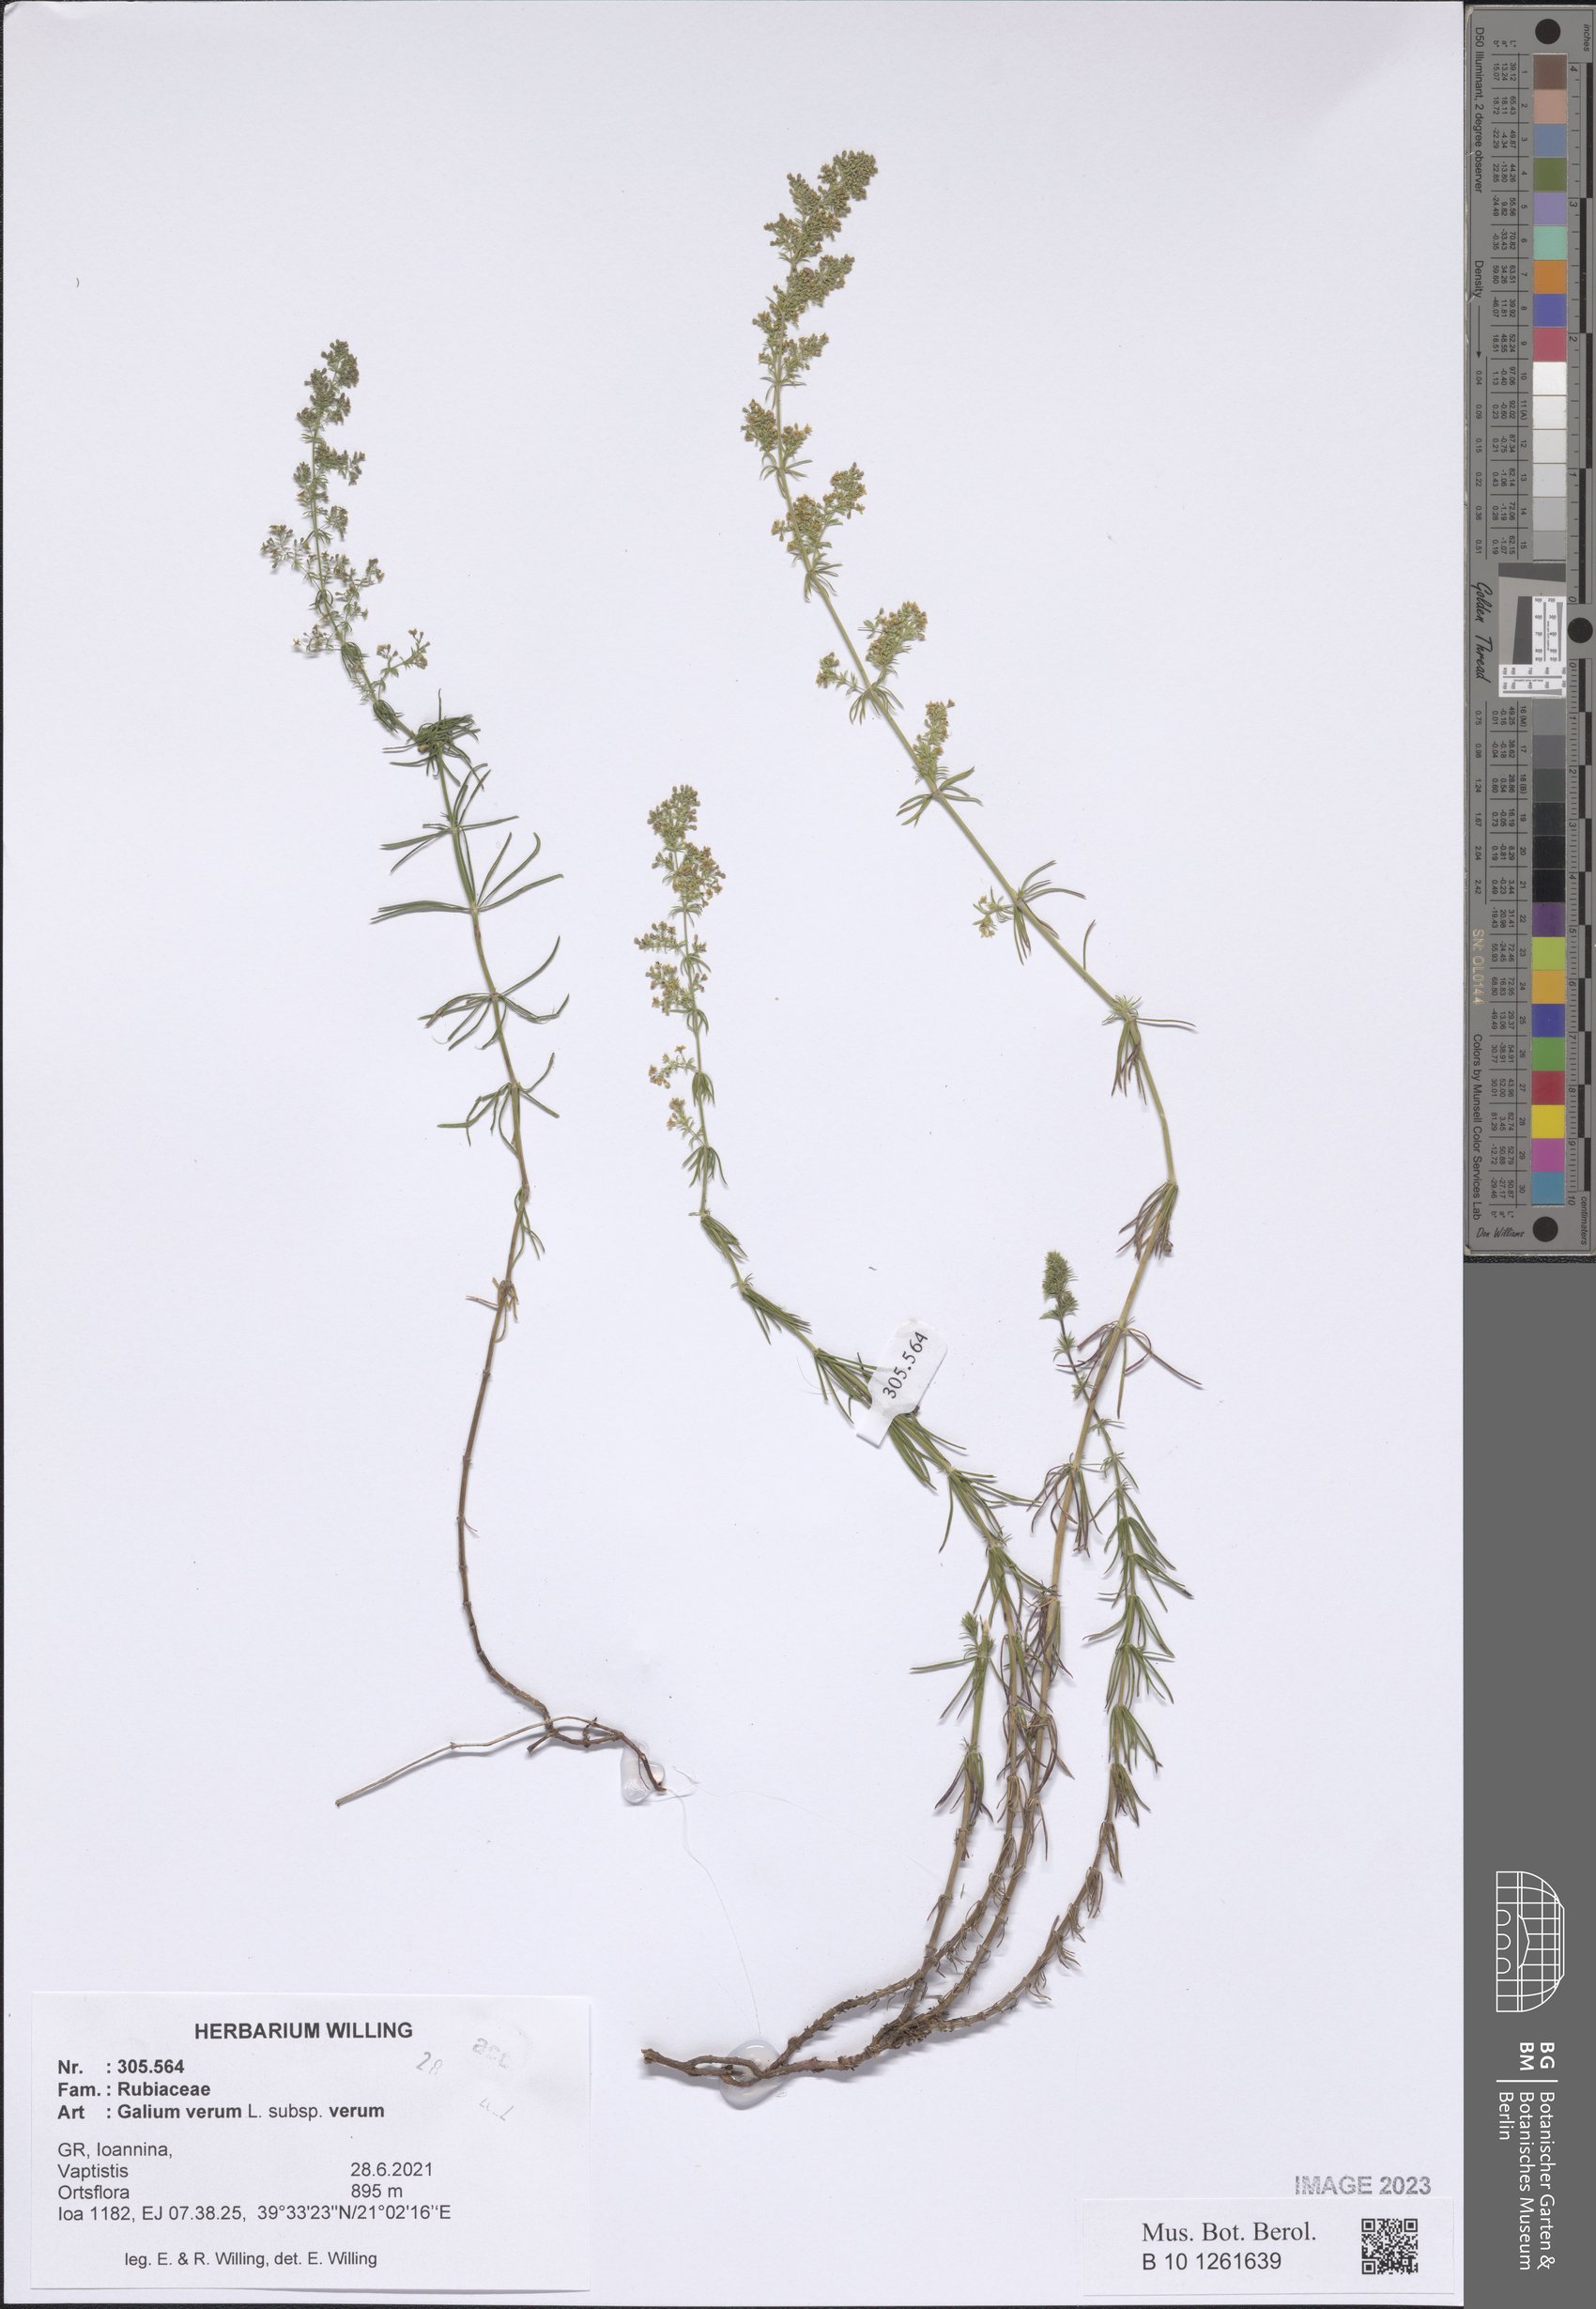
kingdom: Plantae
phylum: Tracheophyta
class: Magnoliopsida
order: Gentianales
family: Rubiaceae
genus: Galium
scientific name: Galium verum
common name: Lady's bedstraw
